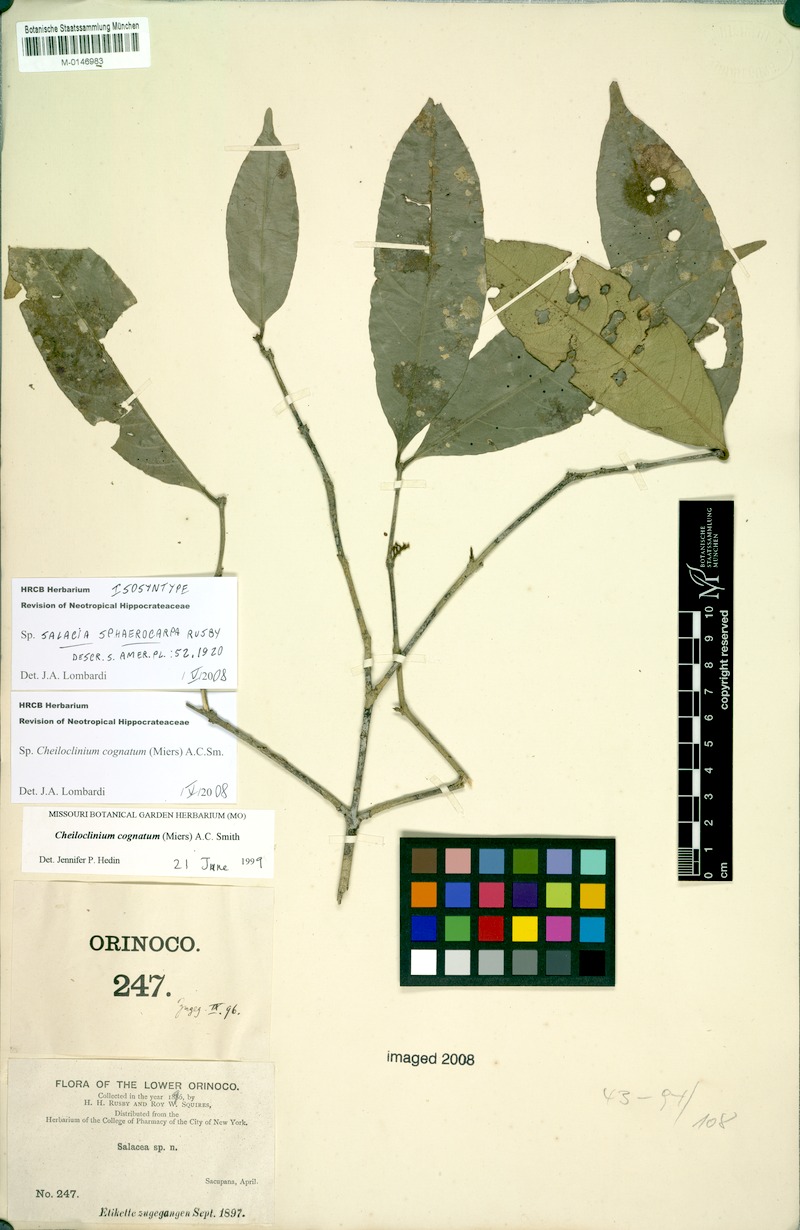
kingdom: Plantae
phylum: Tracheophyta
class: Magnoliopsida
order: Celastrales
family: Celastraceae
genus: Cheiloclinium
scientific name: Cheiloclinium cognatum
